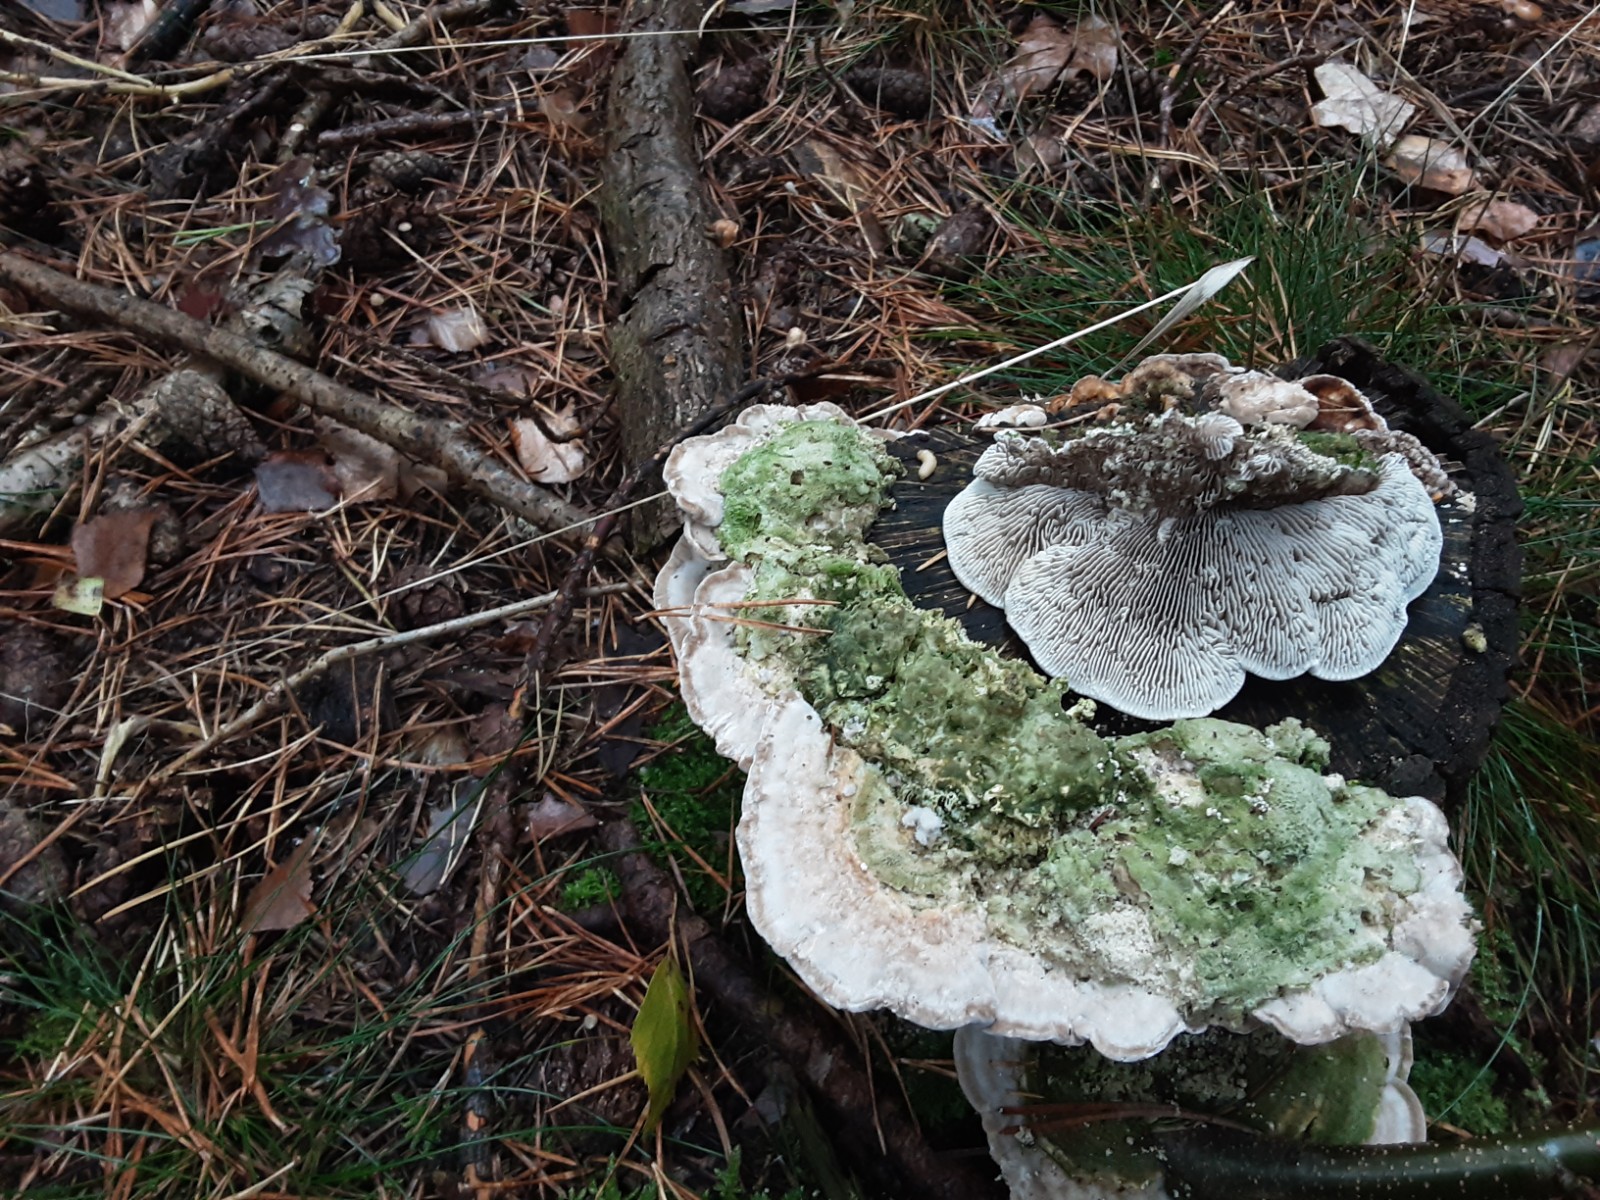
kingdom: Fungi
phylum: Basidiomycota
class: Agaricomycetes
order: Polyporales
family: Polyporaceae
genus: Lenzites
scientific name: Lenzites betulinus
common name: birke-læderporesvamp
